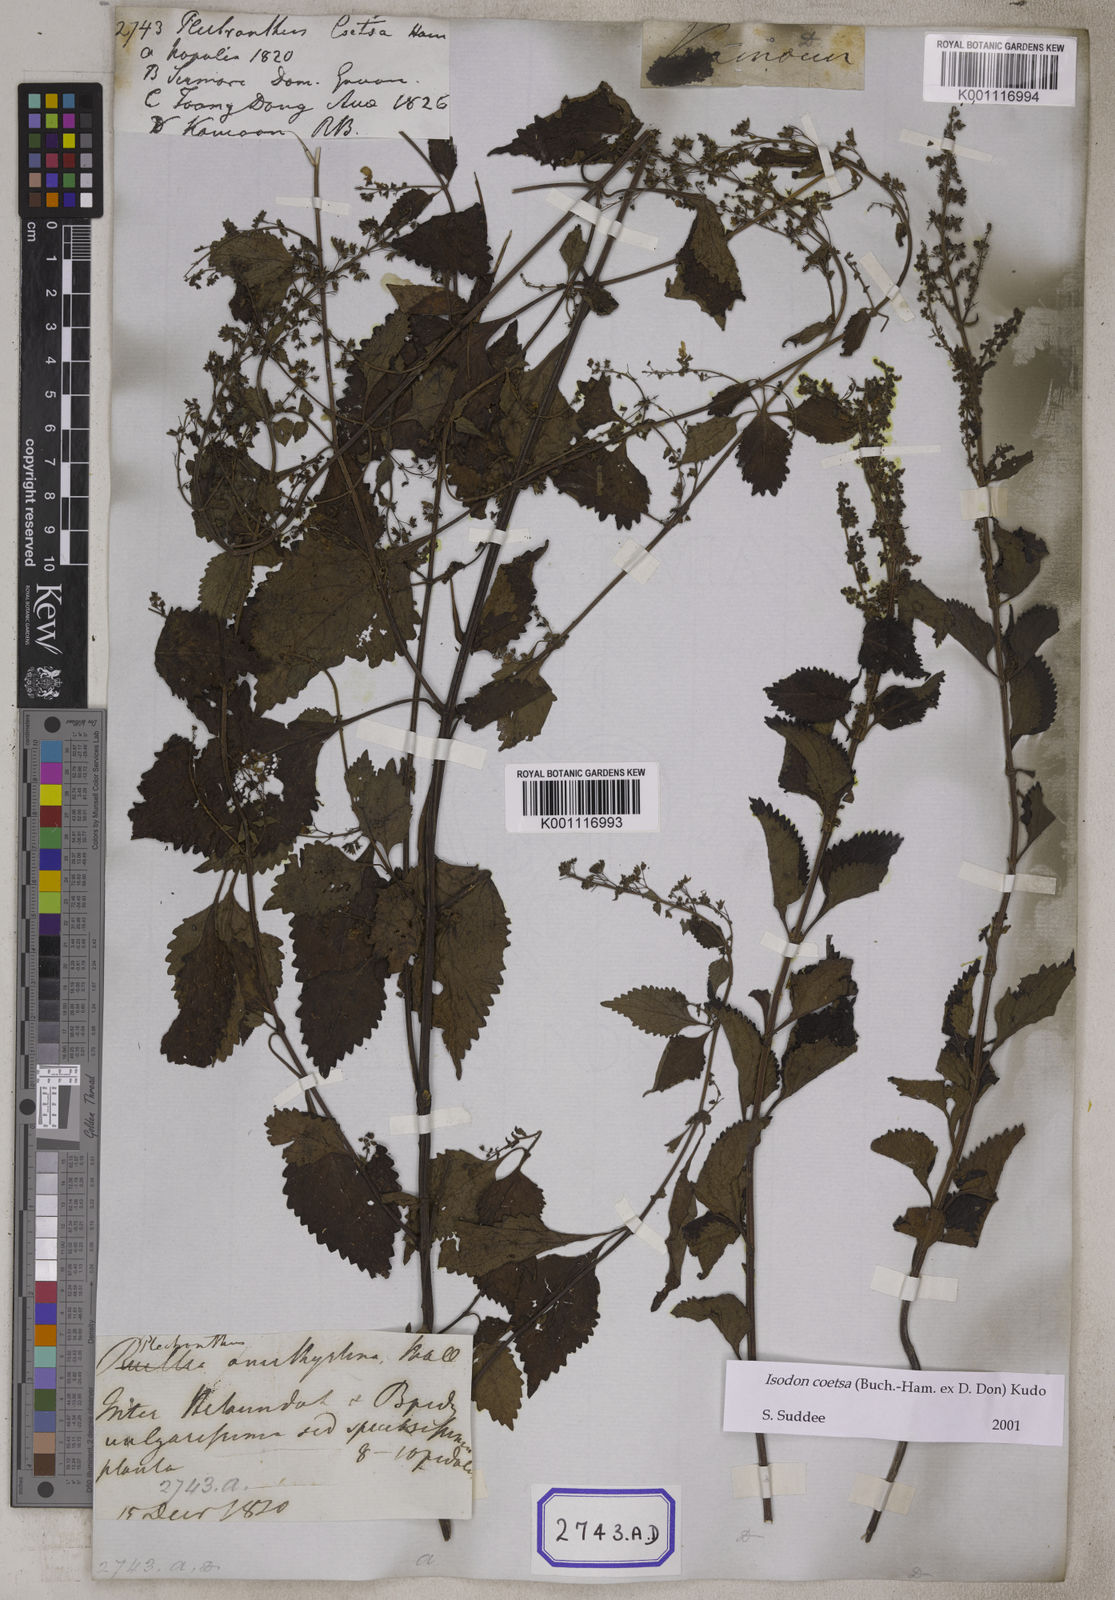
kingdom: Plantae
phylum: Tracheophyta
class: Magnoliopsida
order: Lamiales
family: Lamiaceae
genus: Isodon
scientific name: Isodon coetsa
